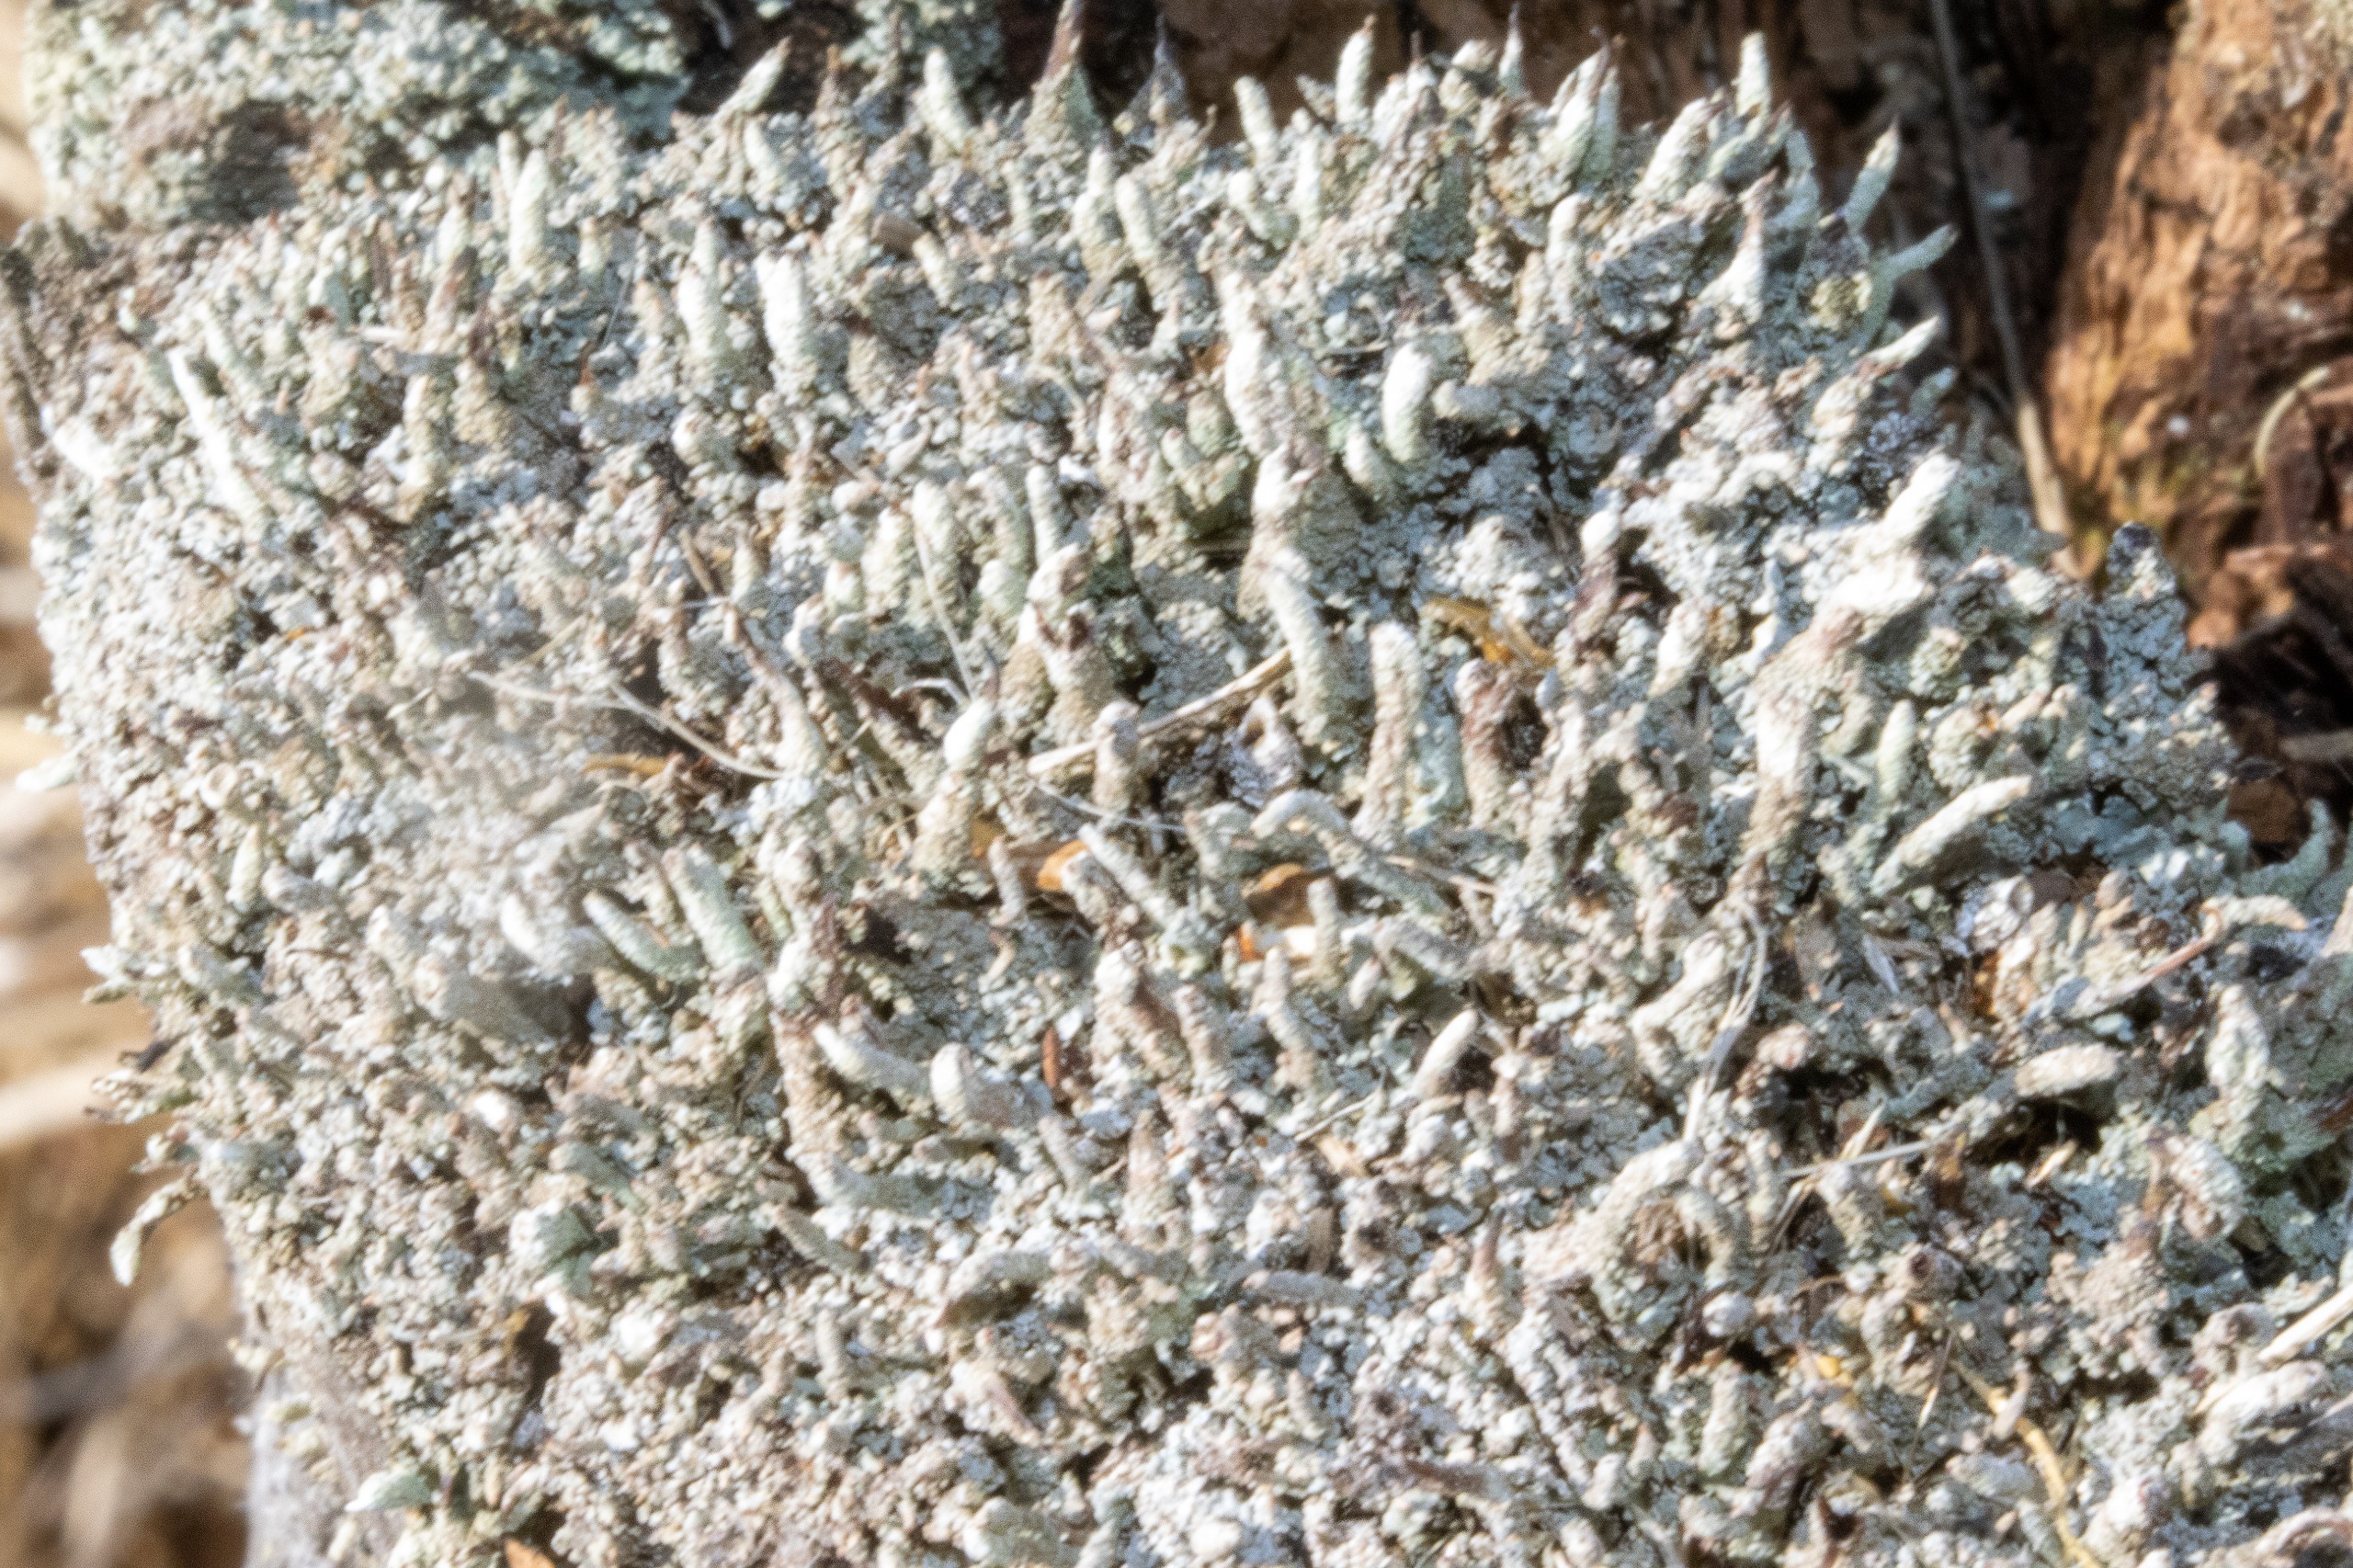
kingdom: Fungi
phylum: Ascomycota
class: Lecanoromycetes
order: Lecanorales
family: Cladoniaceae
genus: Cladonia
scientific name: Cladonia
